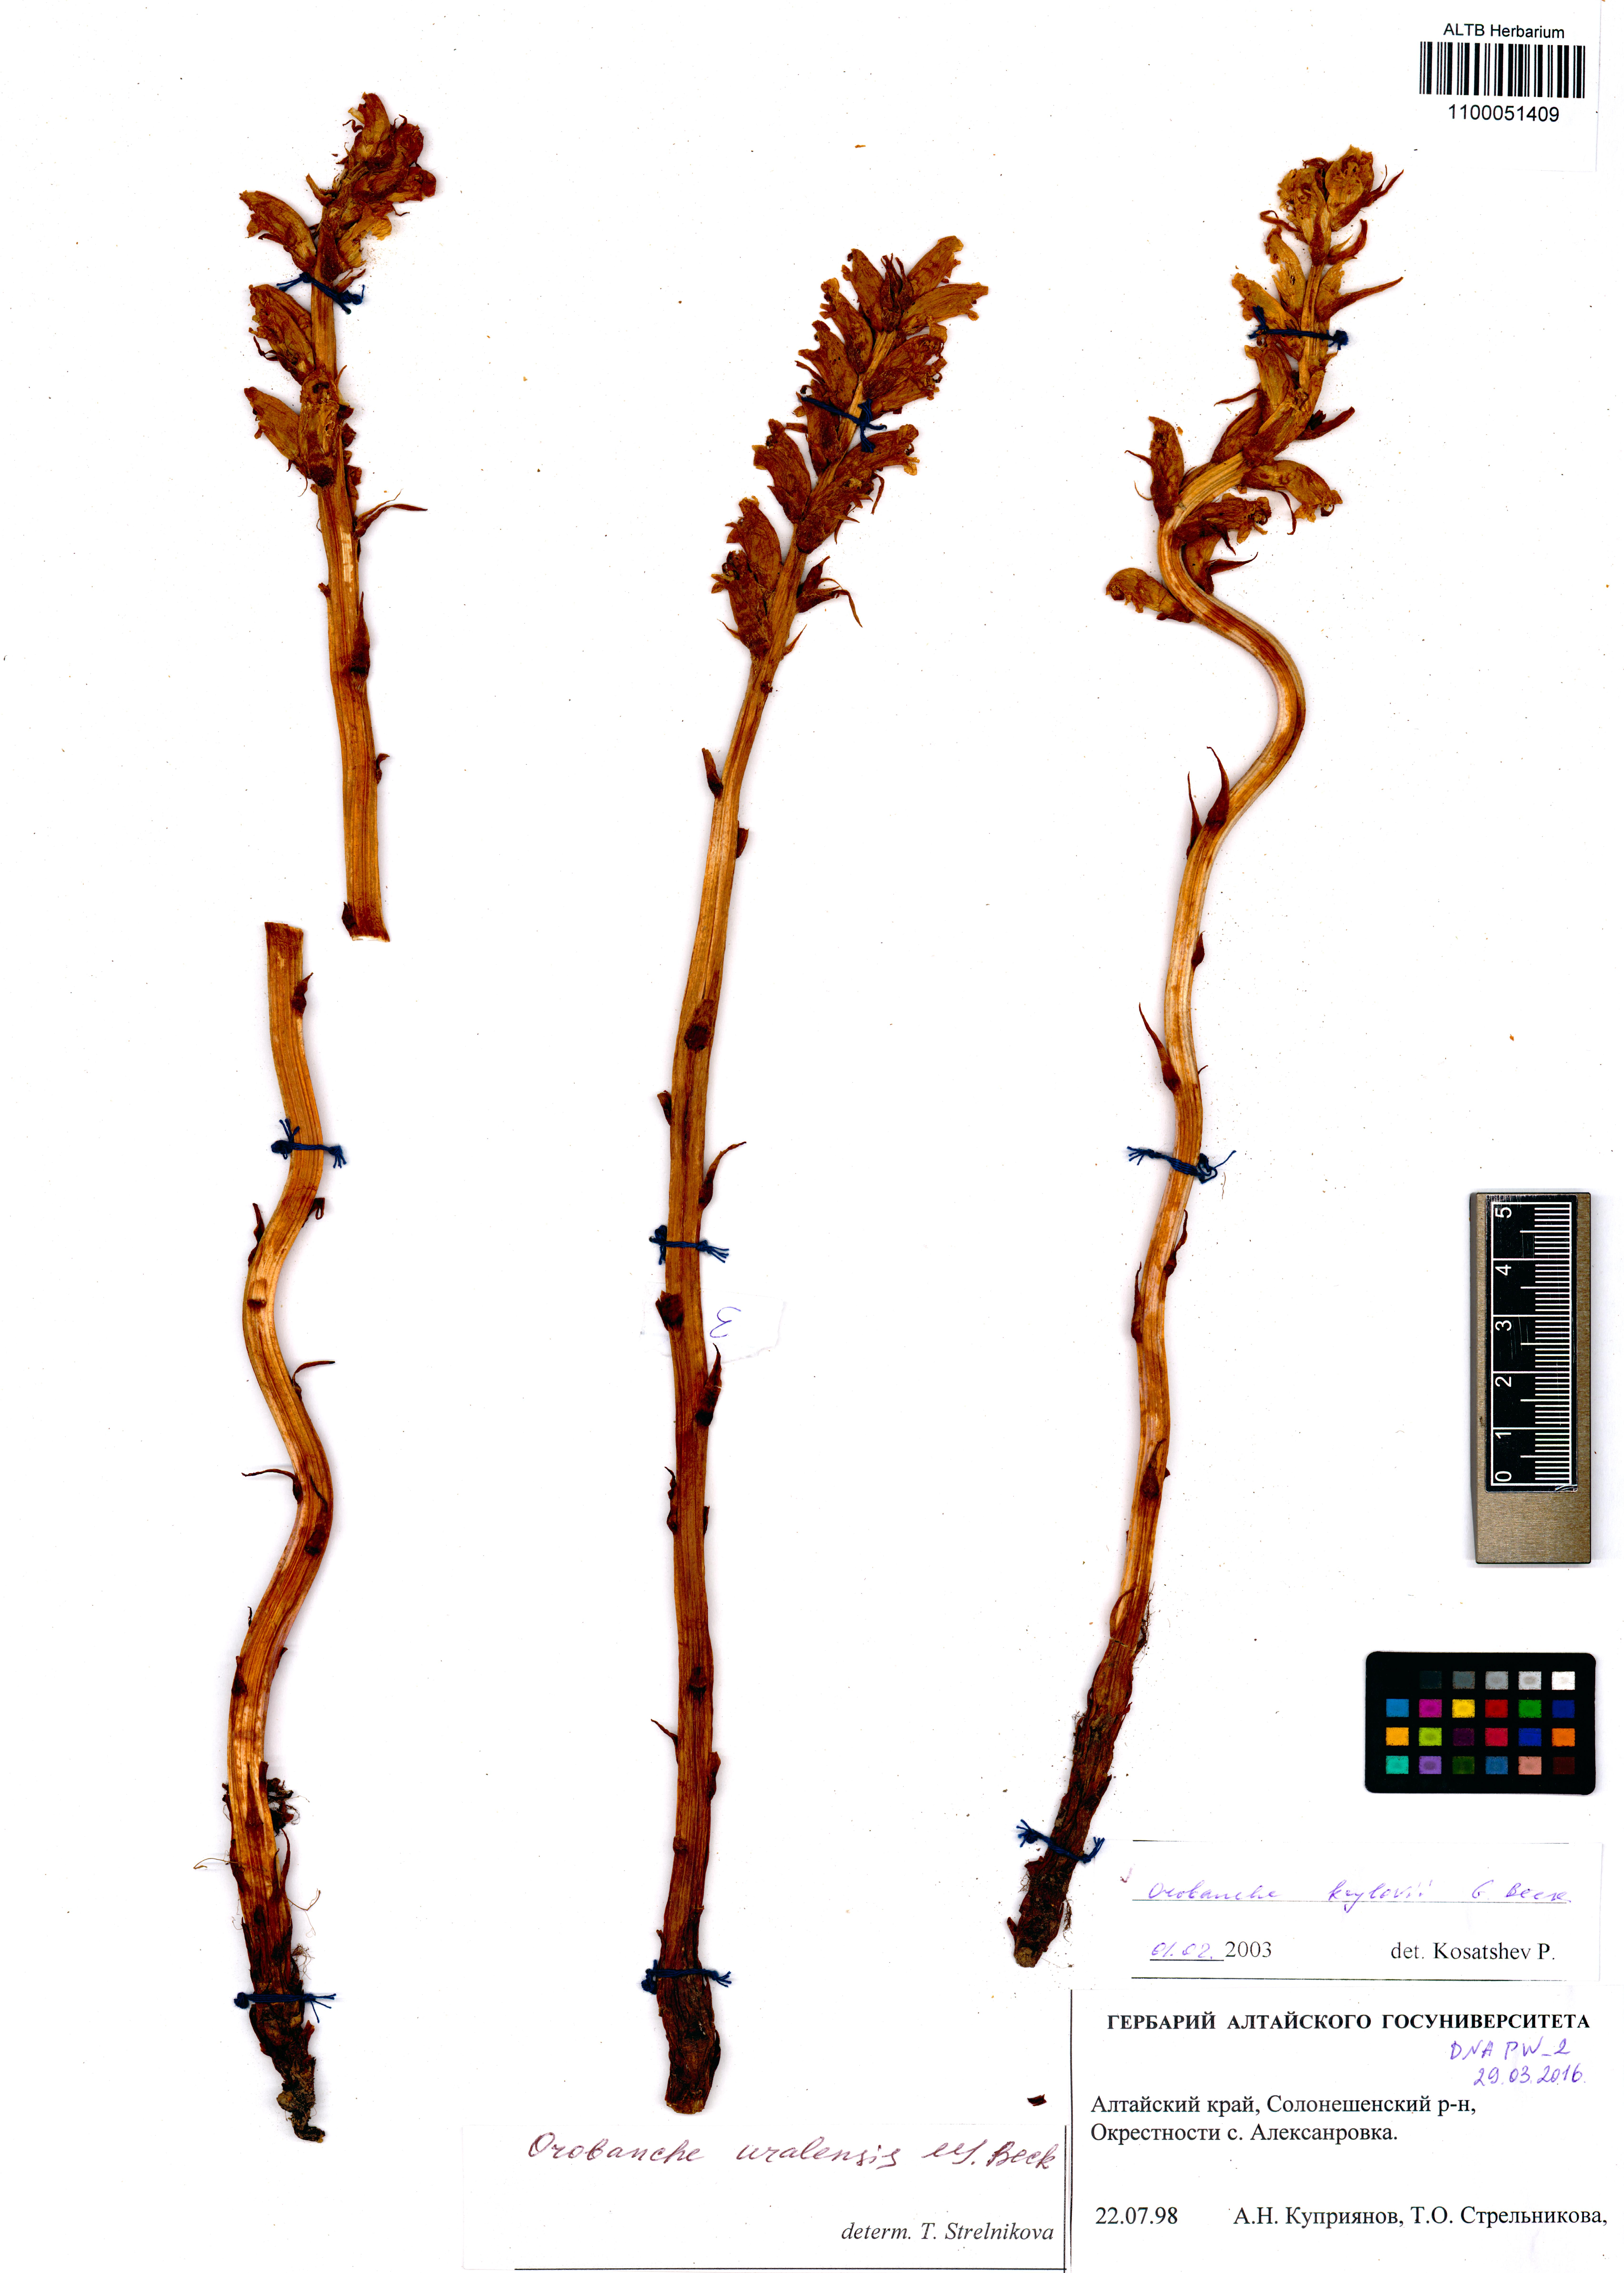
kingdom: Plantae
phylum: Tracheophyta
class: Magnoliopsida
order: Lamiales
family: Orobanchaceae
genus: Orobanche
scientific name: Orobanche krylowii
